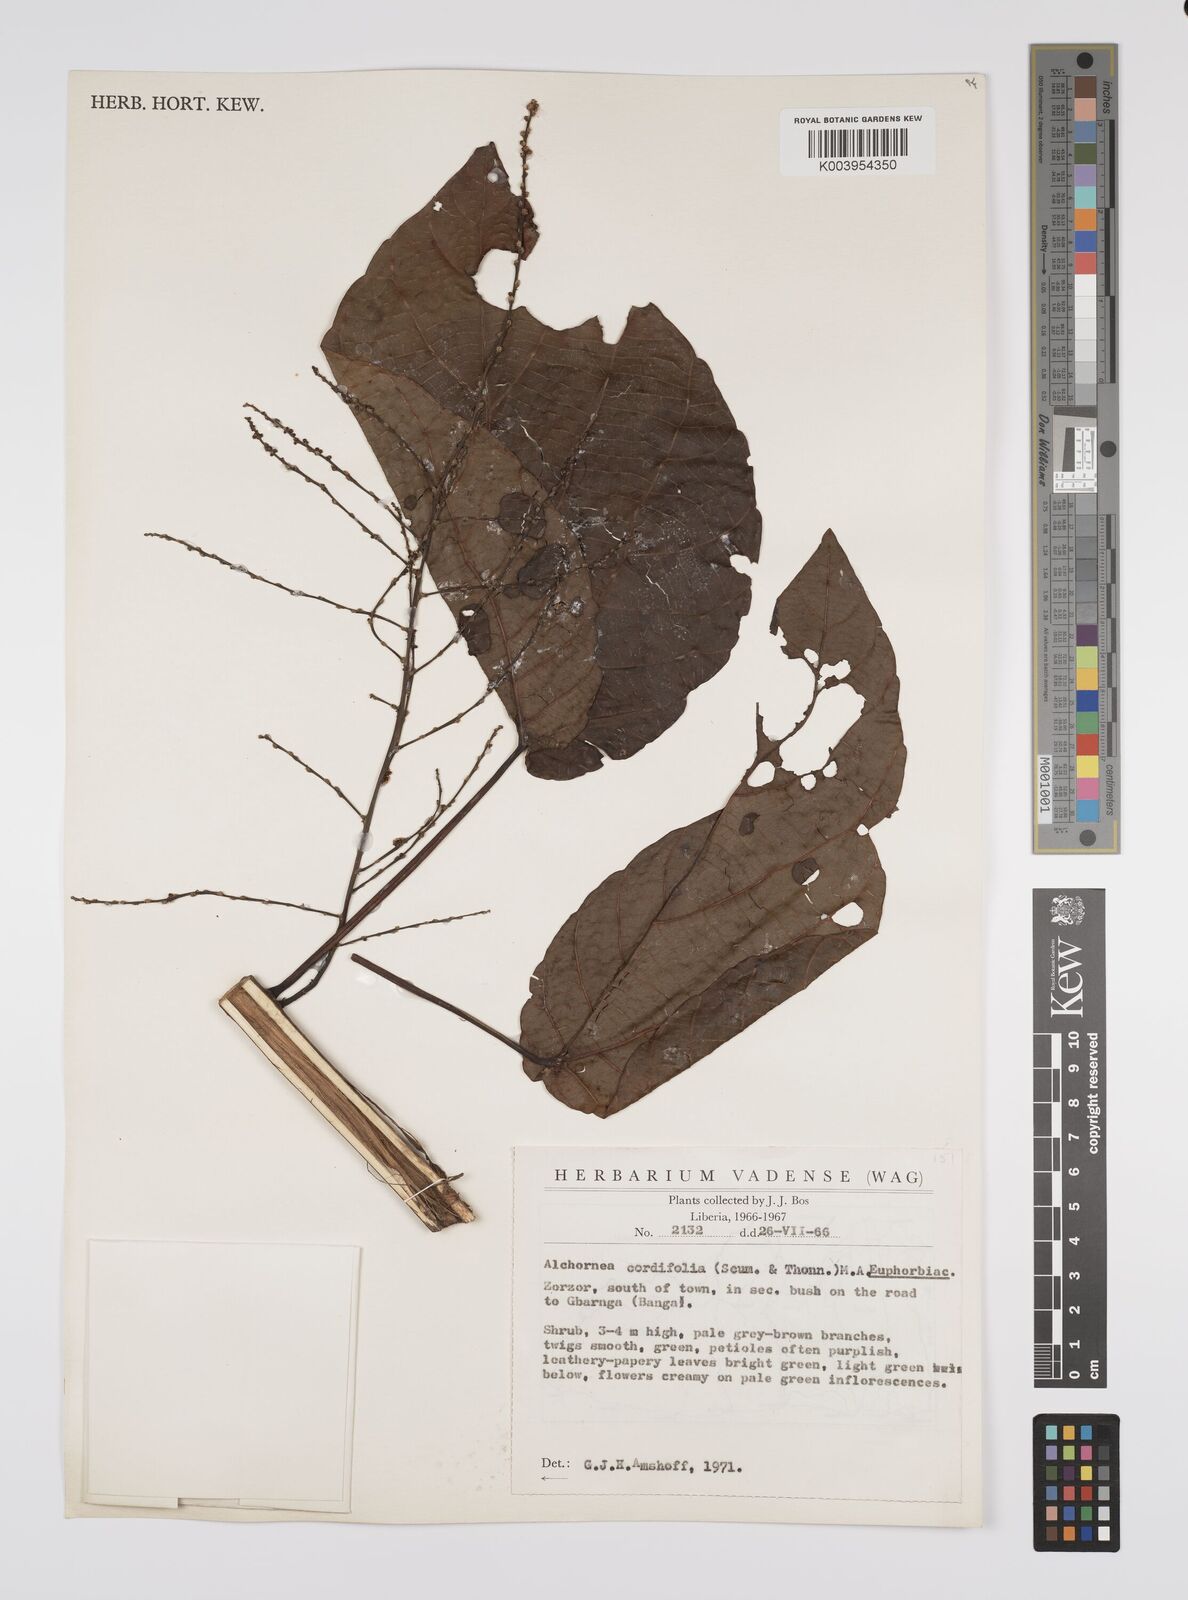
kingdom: Plantae
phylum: Tracheophyta
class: Magnoliopsida
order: Malpighiales
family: Euphorbiaceae
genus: Alchornea
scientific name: Alchornea cordifolia
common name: Christmasbush
